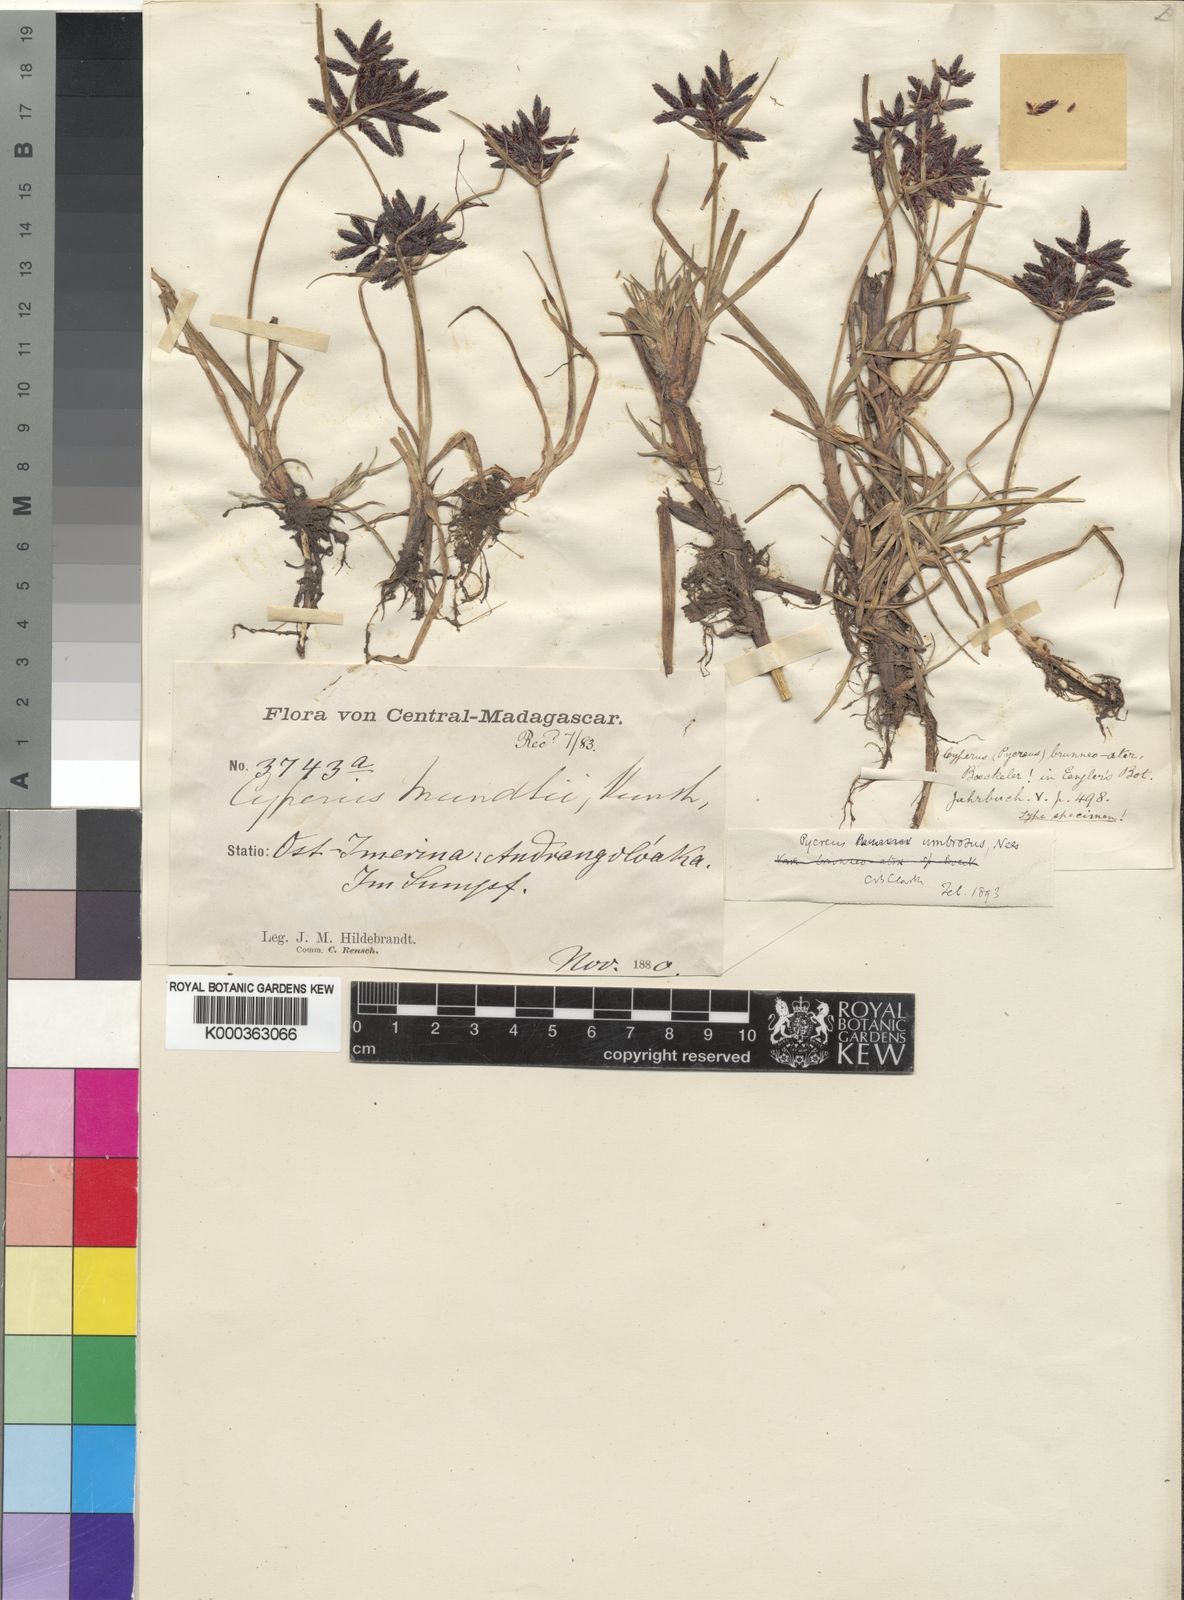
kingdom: Plantae
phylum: Tracheophyta
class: Liliopsida
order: Poales
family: Cyperaceae
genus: Cyperus
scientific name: Cyperus nitidus
